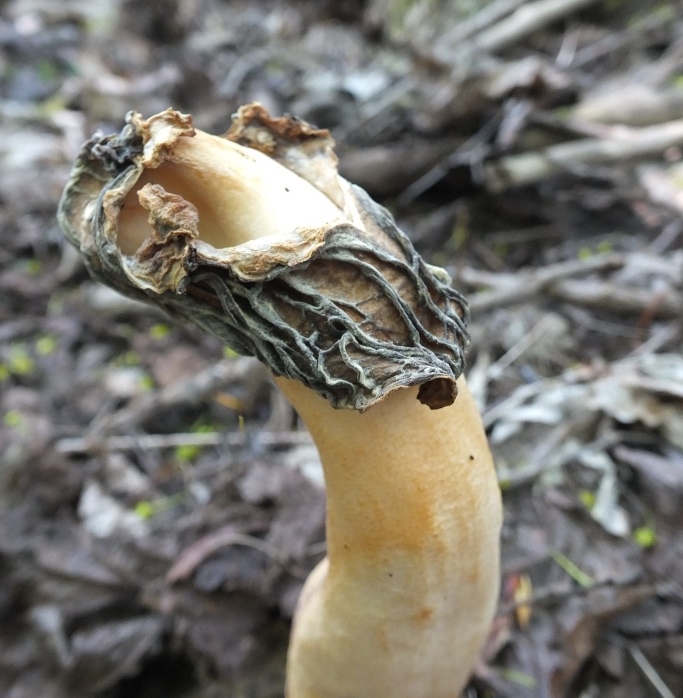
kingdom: Fungi
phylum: Ascomycota
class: Pezizomycetes
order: Pezizales
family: Morchellaceae
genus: Verpa
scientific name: Verpa bohemica
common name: rynket klokkemorkel
